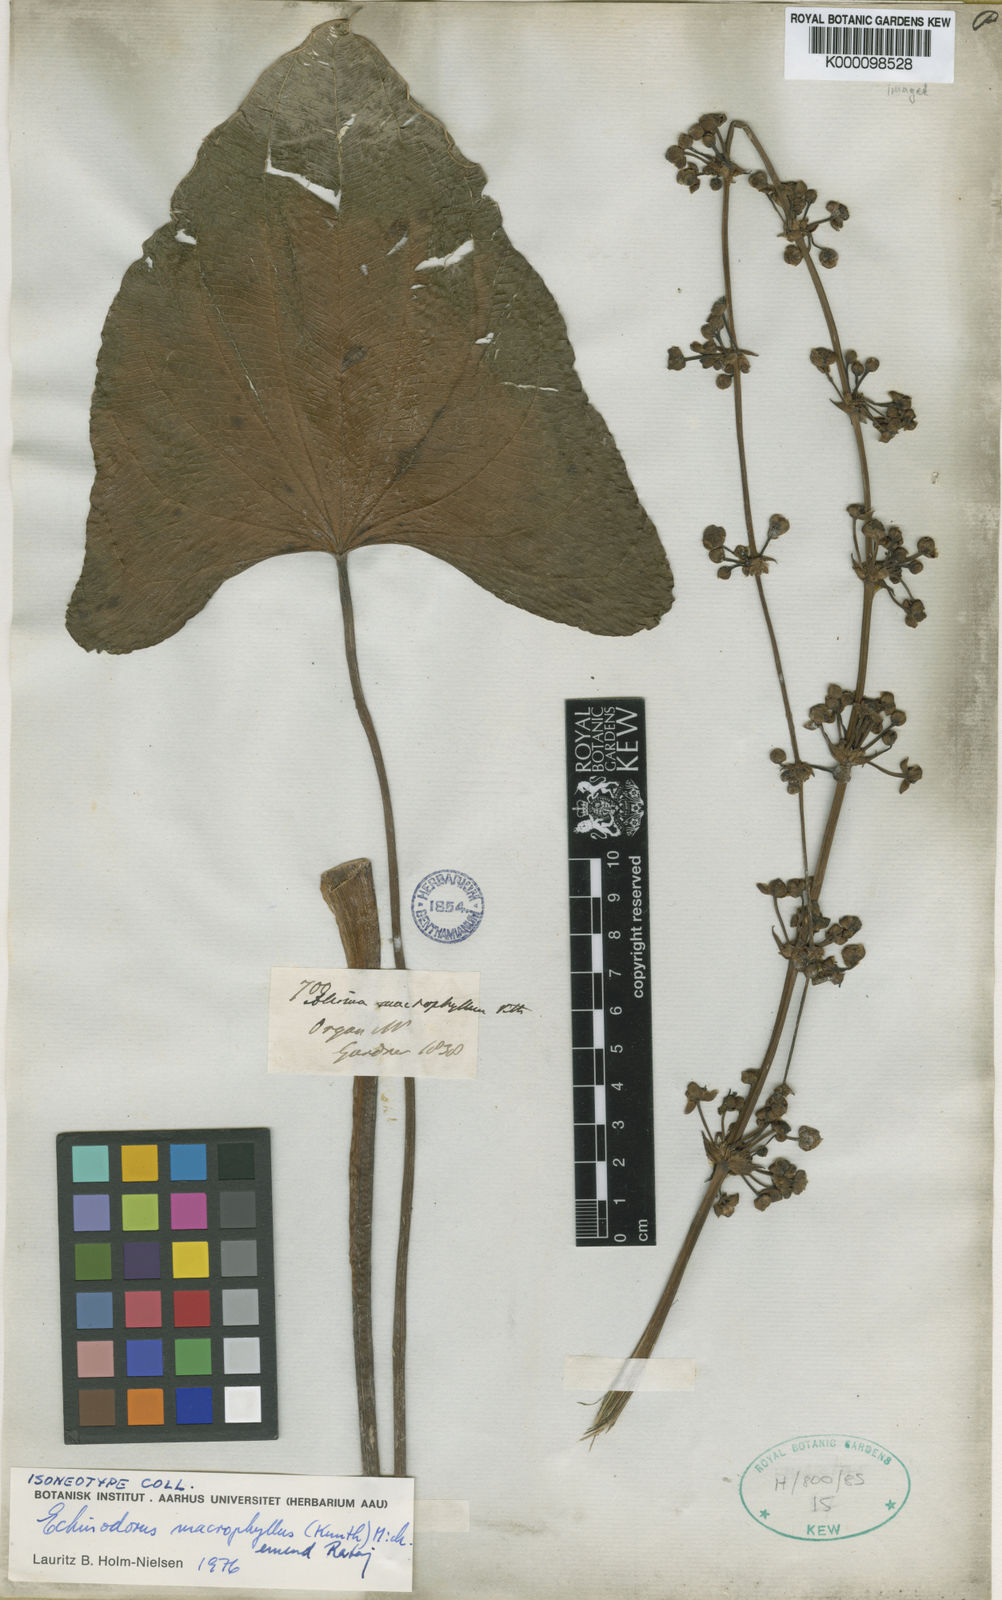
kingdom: Plantae
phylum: Tracheophyta
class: Liliopsida
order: Alismatales
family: Alismataceae
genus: Aquarius
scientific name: Aquarius macrophyllus
